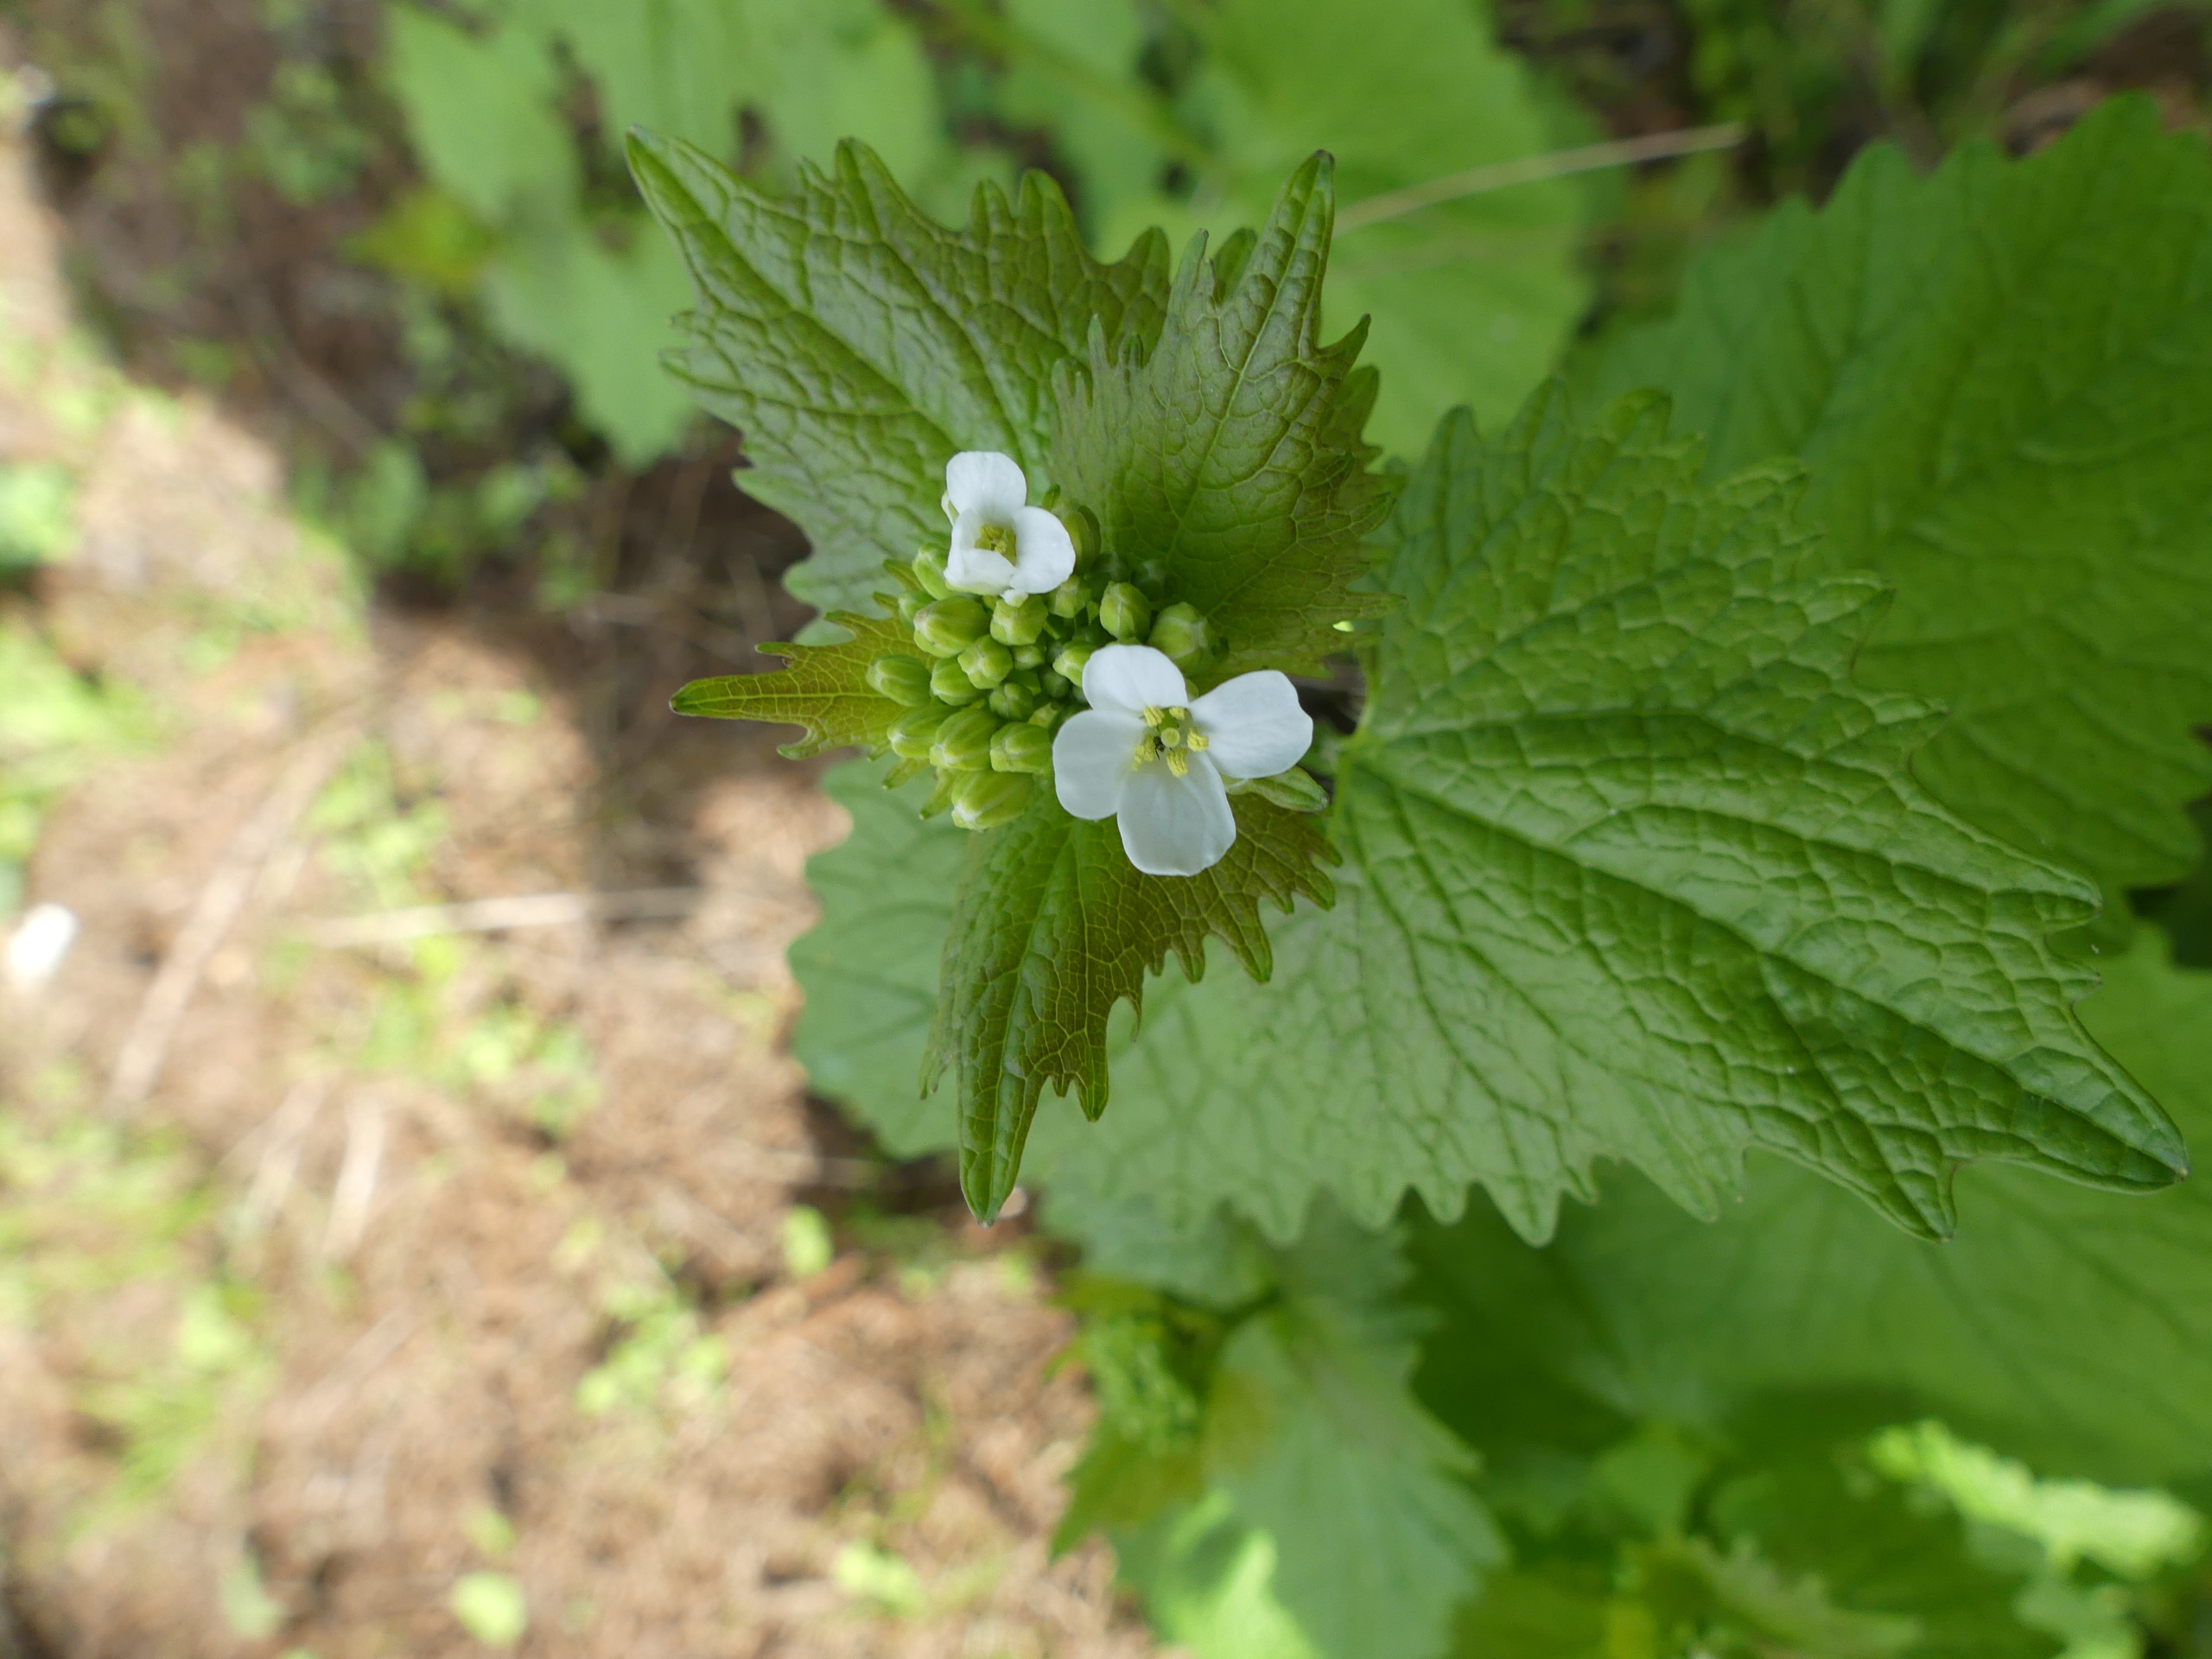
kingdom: Plantae
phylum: Tracheophyta
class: Magnoliopsida
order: Brassicales
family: Brassicaceae
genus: Alliaria
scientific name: Alliaria petiolata
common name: Løgkarse
